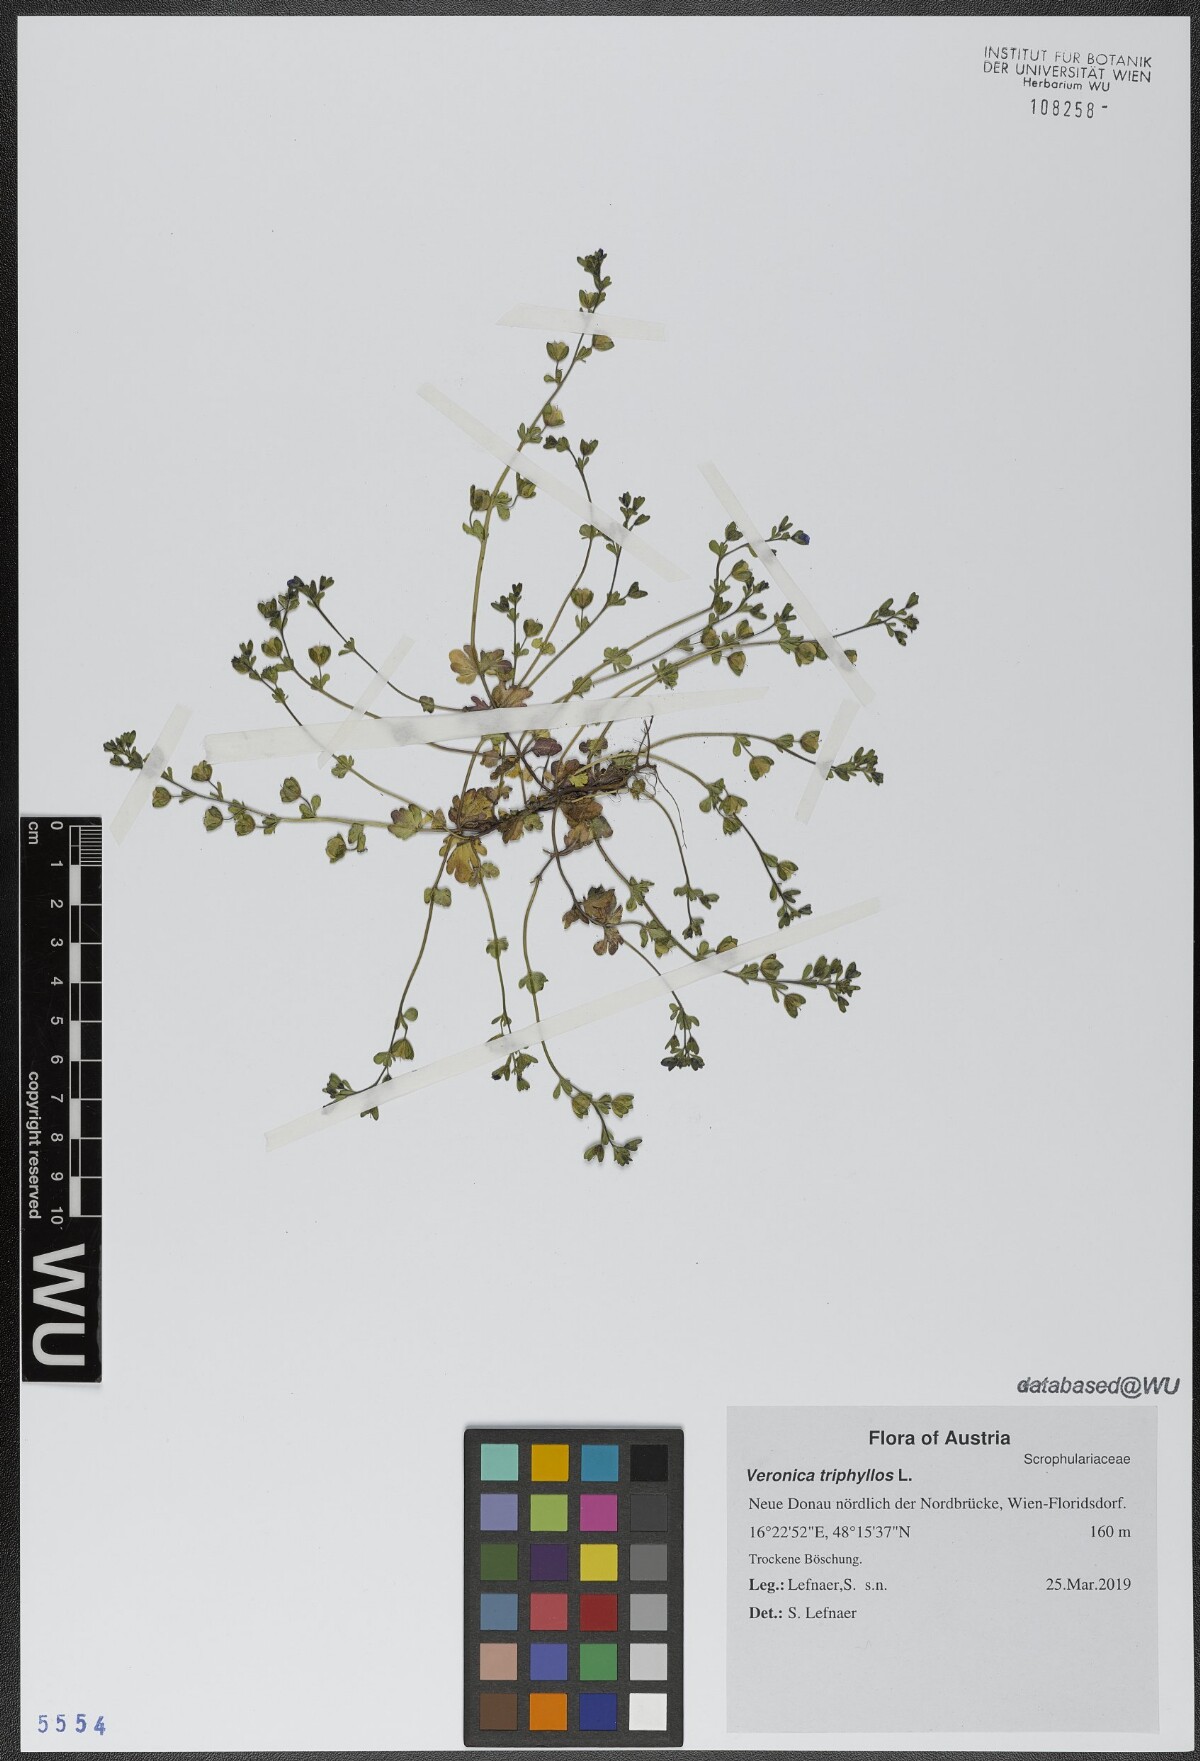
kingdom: Plantae
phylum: Tracheophyta
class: Magnoliopsida
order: Lamiales
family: Plantaginaceae
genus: Veronica
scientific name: Veronica triphyllos
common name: Fingered speedwell
